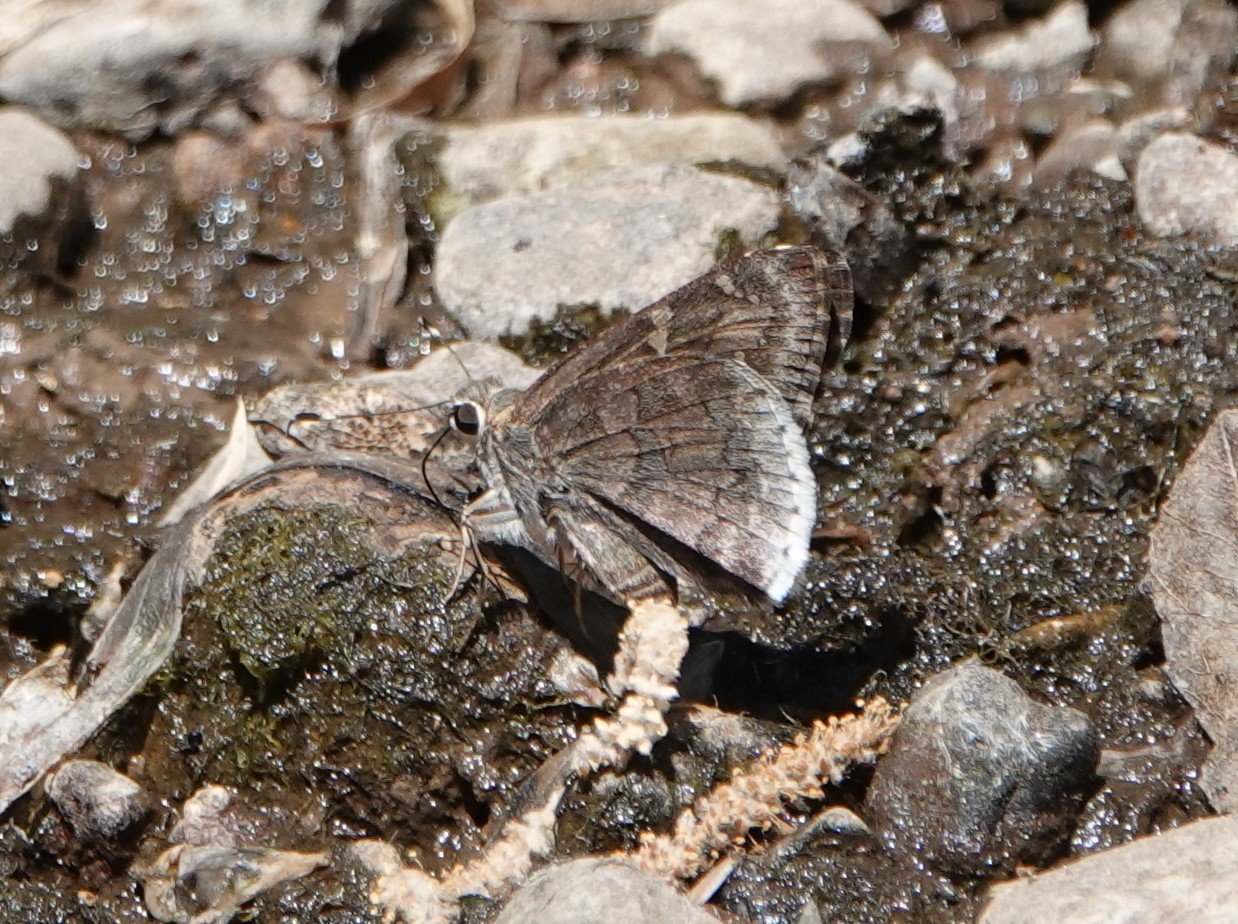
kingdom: Animalia
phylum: Arthropoda
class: Insecta
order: Lepidoptera
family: Hesperiidae
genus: Cogia
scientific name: Cogia hippalus
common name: Acacia Skipper
